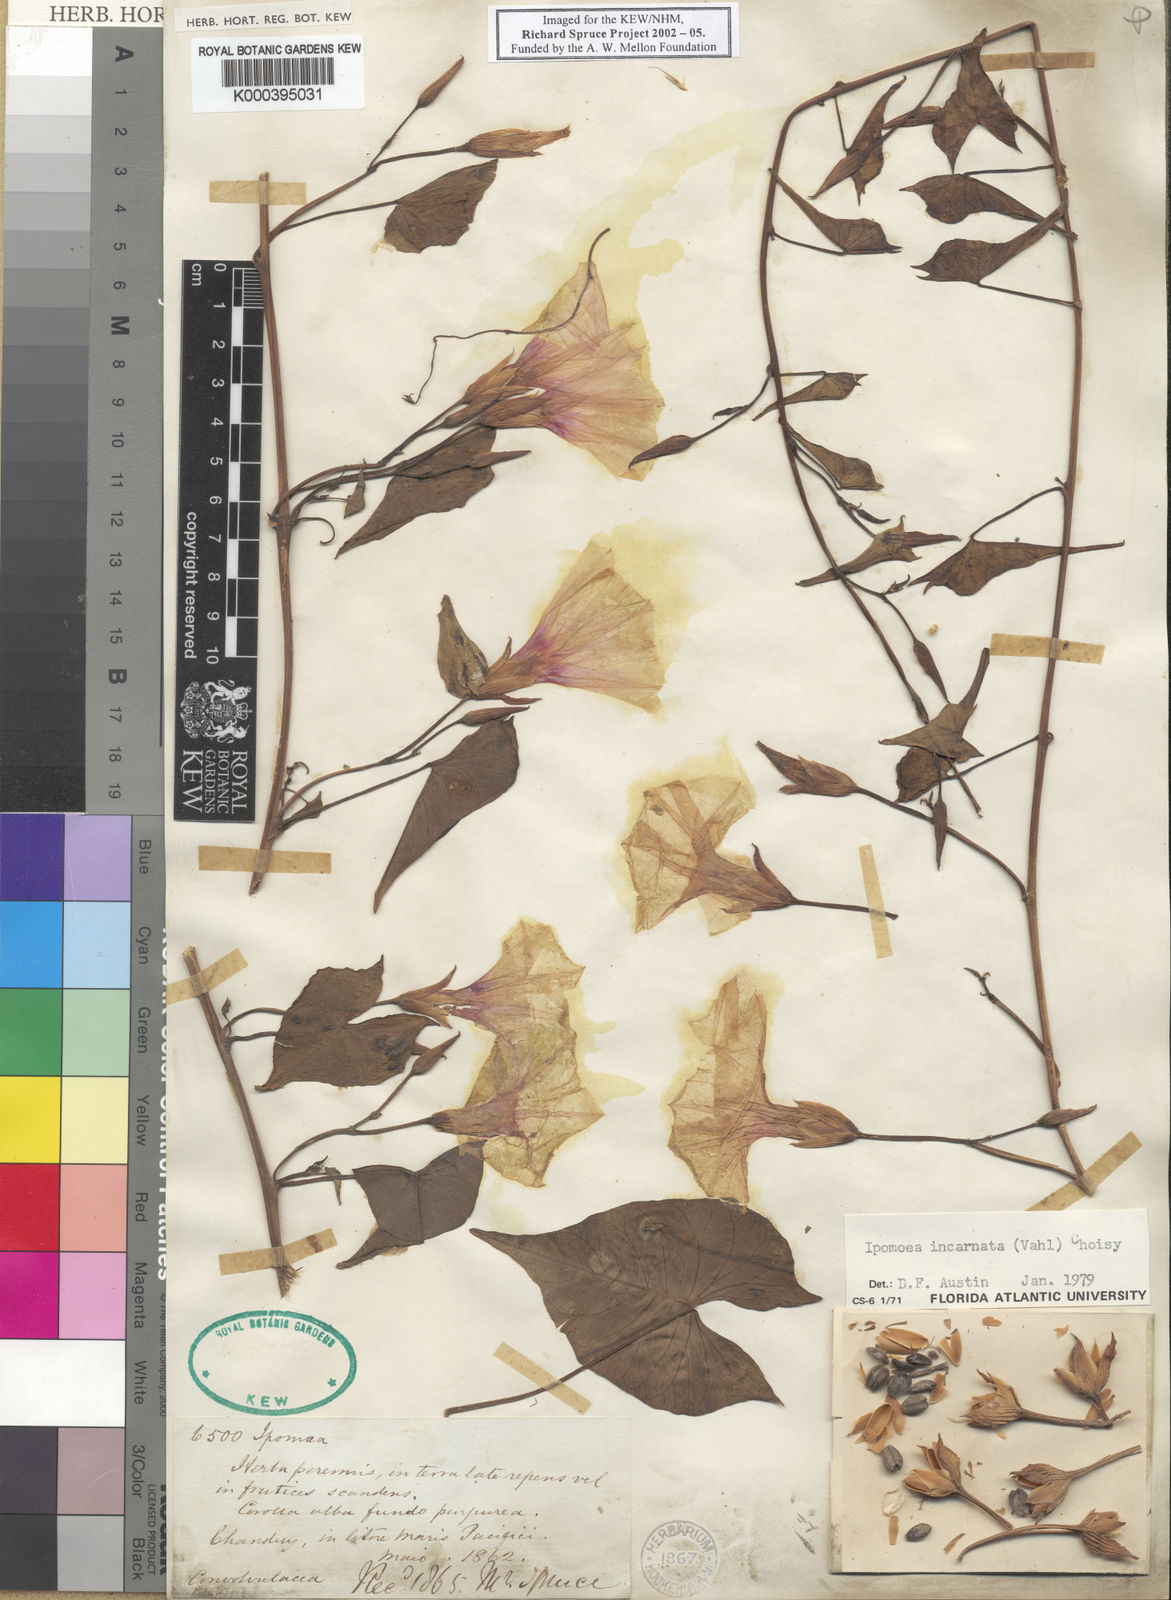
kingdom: Plantae
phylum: Tracheophyta
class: Magnoliopsida
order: Solanales
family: Convolvulaceae
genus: Ipomoea
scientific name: Ipomoea incarnata
